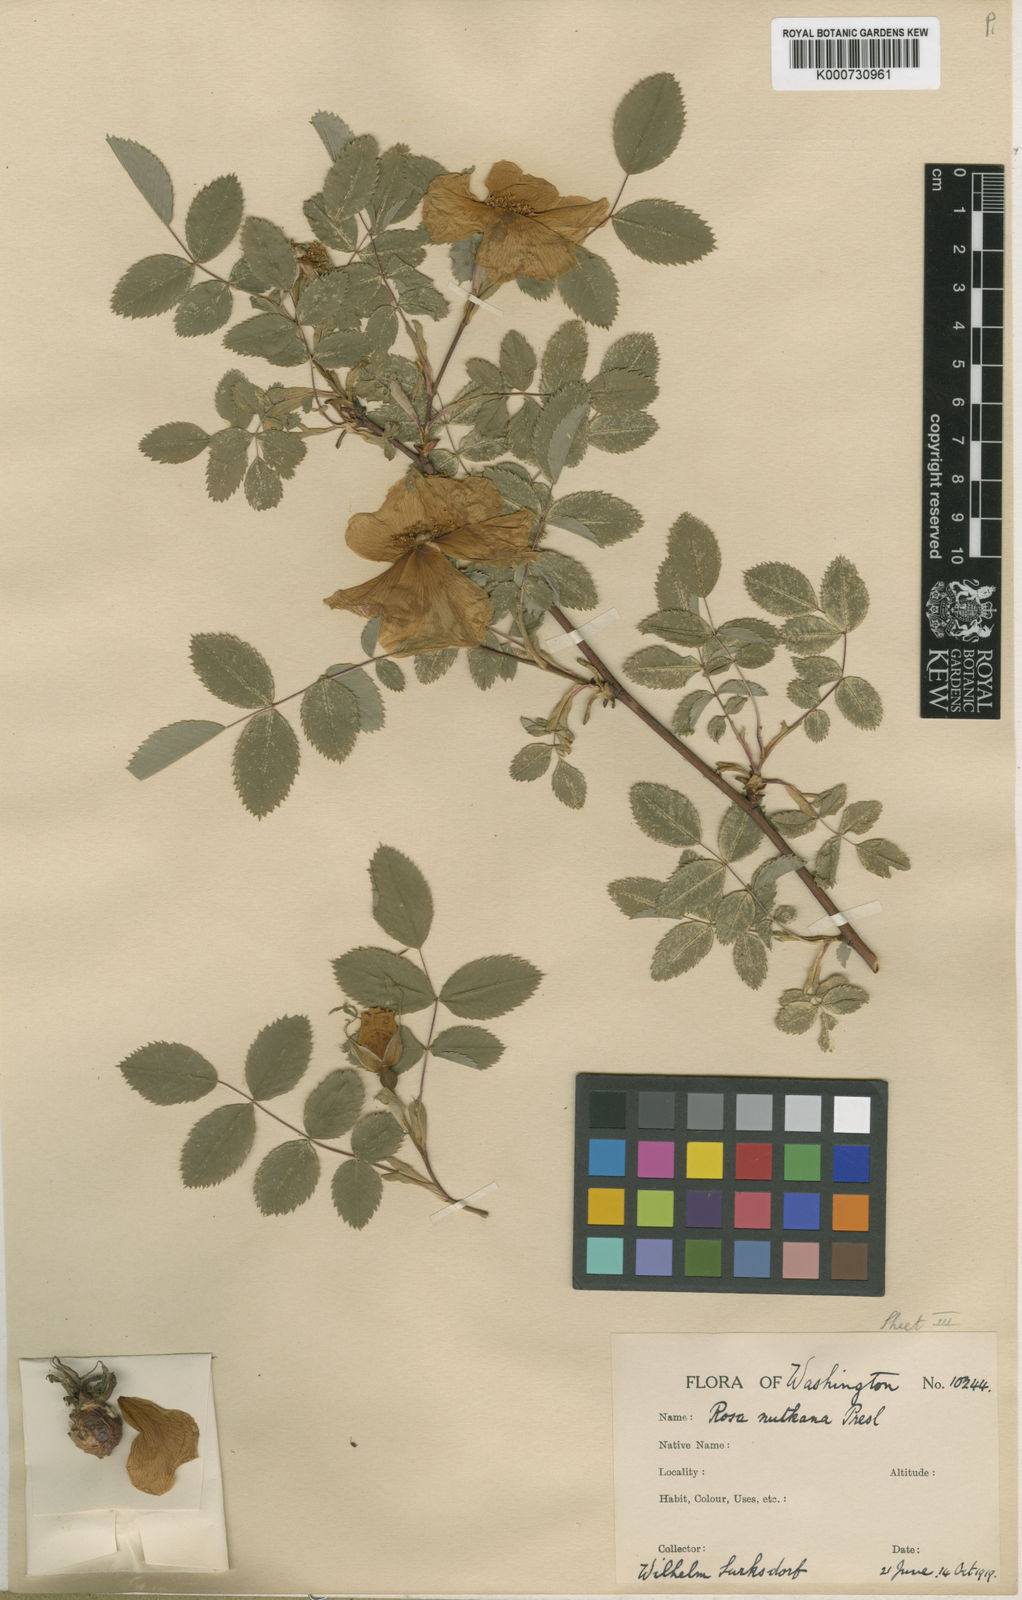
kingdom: Plantae
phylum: Tracheophyta
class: Magnoliopsida
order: Rosales
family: Rosaceae
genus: Rosa
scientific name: Rosa nutkana
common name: Nootka rose
